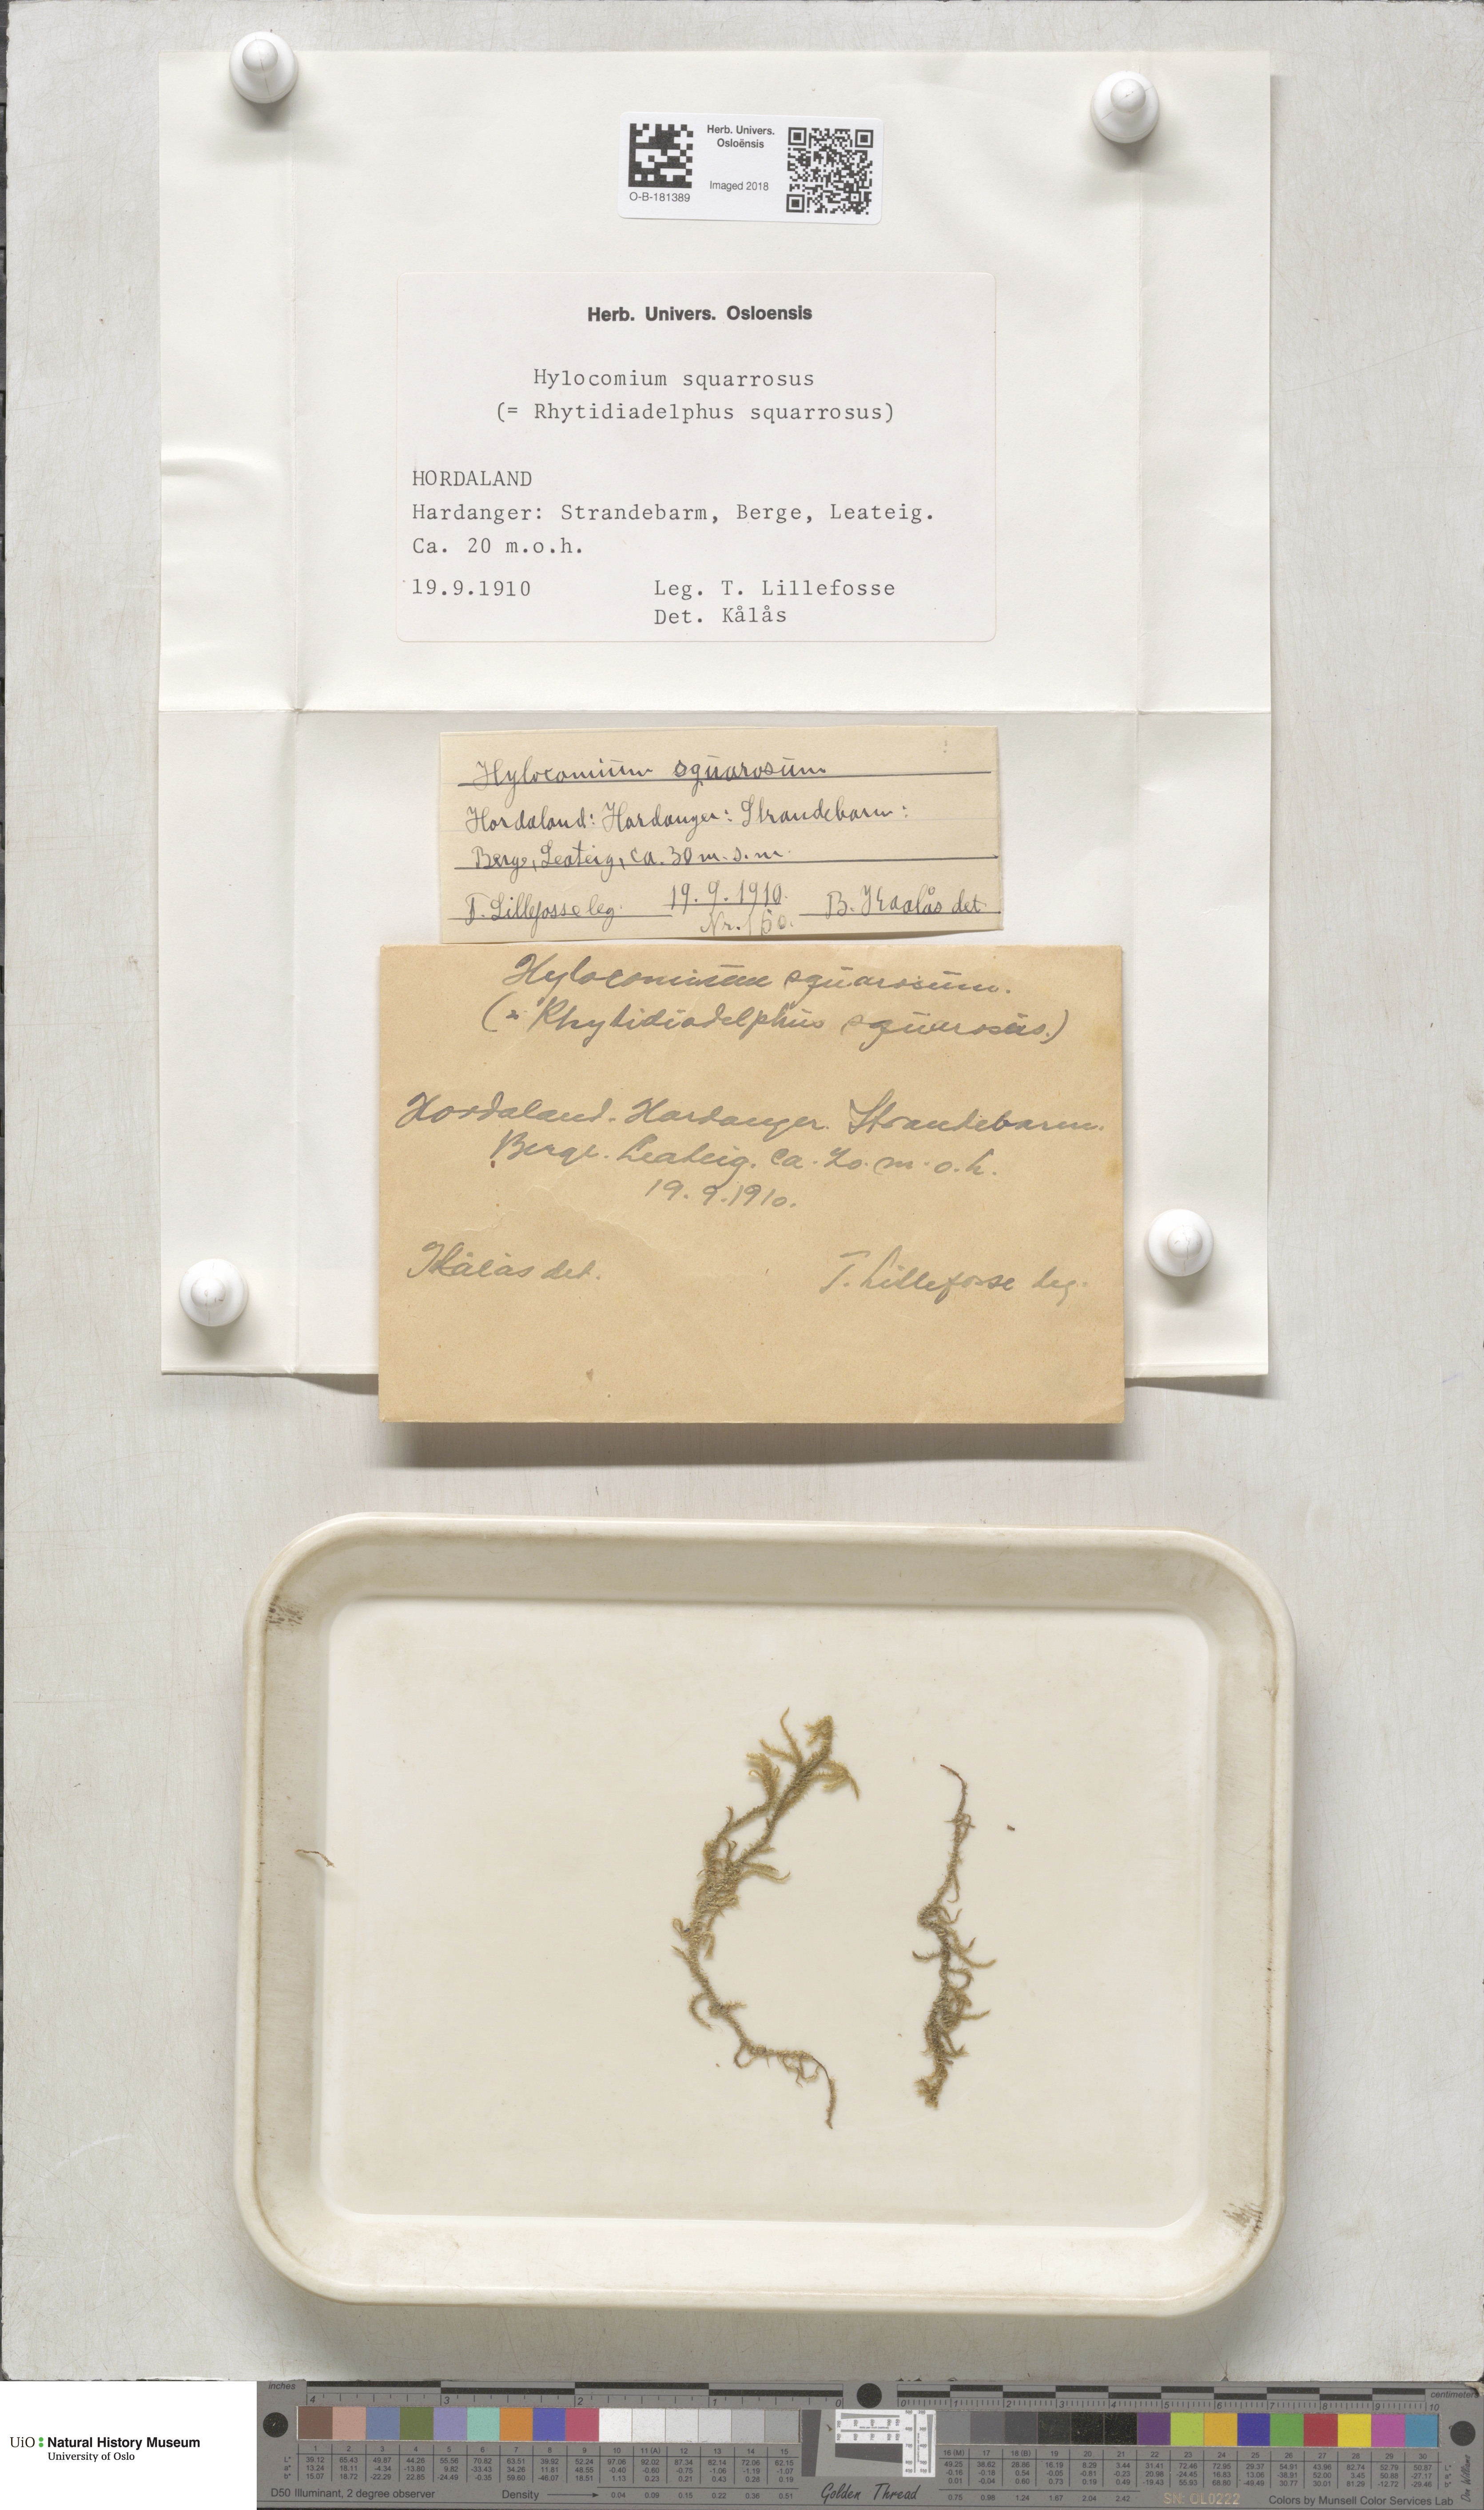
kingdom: Plantae
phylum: Bryophyta
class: Bryopsida
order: Hypnales
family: Hylocomiaceae
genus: Rhytidiadelphus
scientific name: Rhytidiadelphus squarrosus
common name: Springy turf-moss
